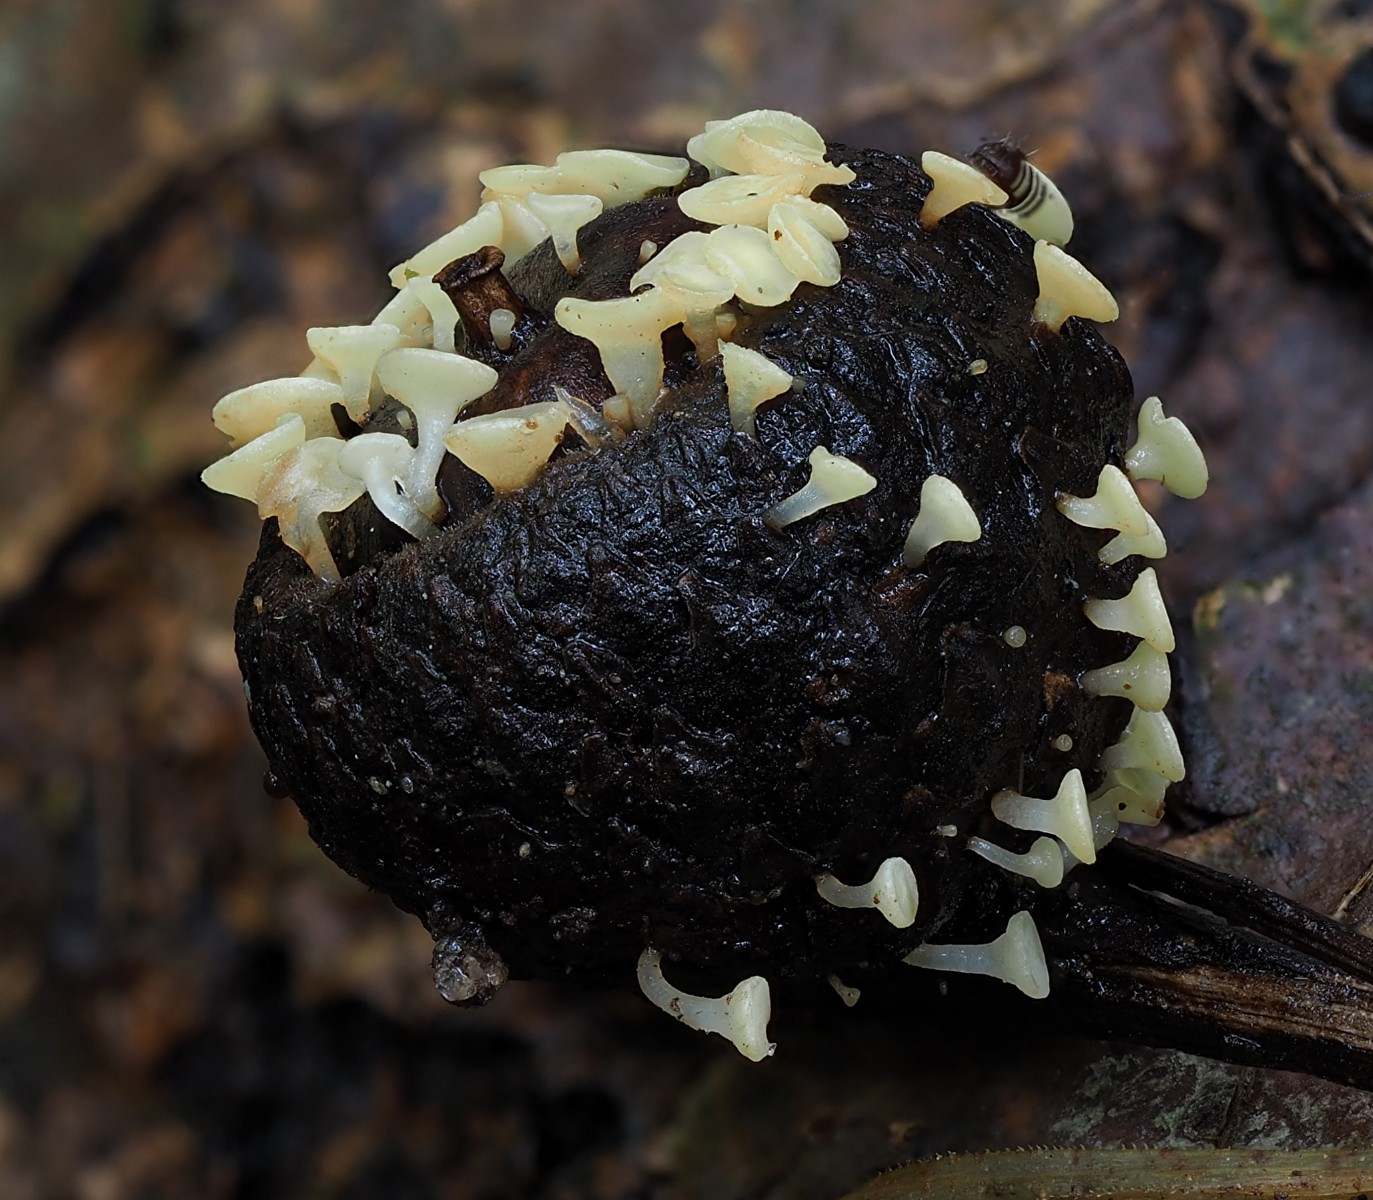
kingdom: Fungi
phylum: Ascomycota
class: Leotiomycetes
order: Helotiales
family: Helotiaceae
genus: Hymenoscyphus
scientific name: Hymenoscyphus fructigenus
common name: frugt-stilkskive
